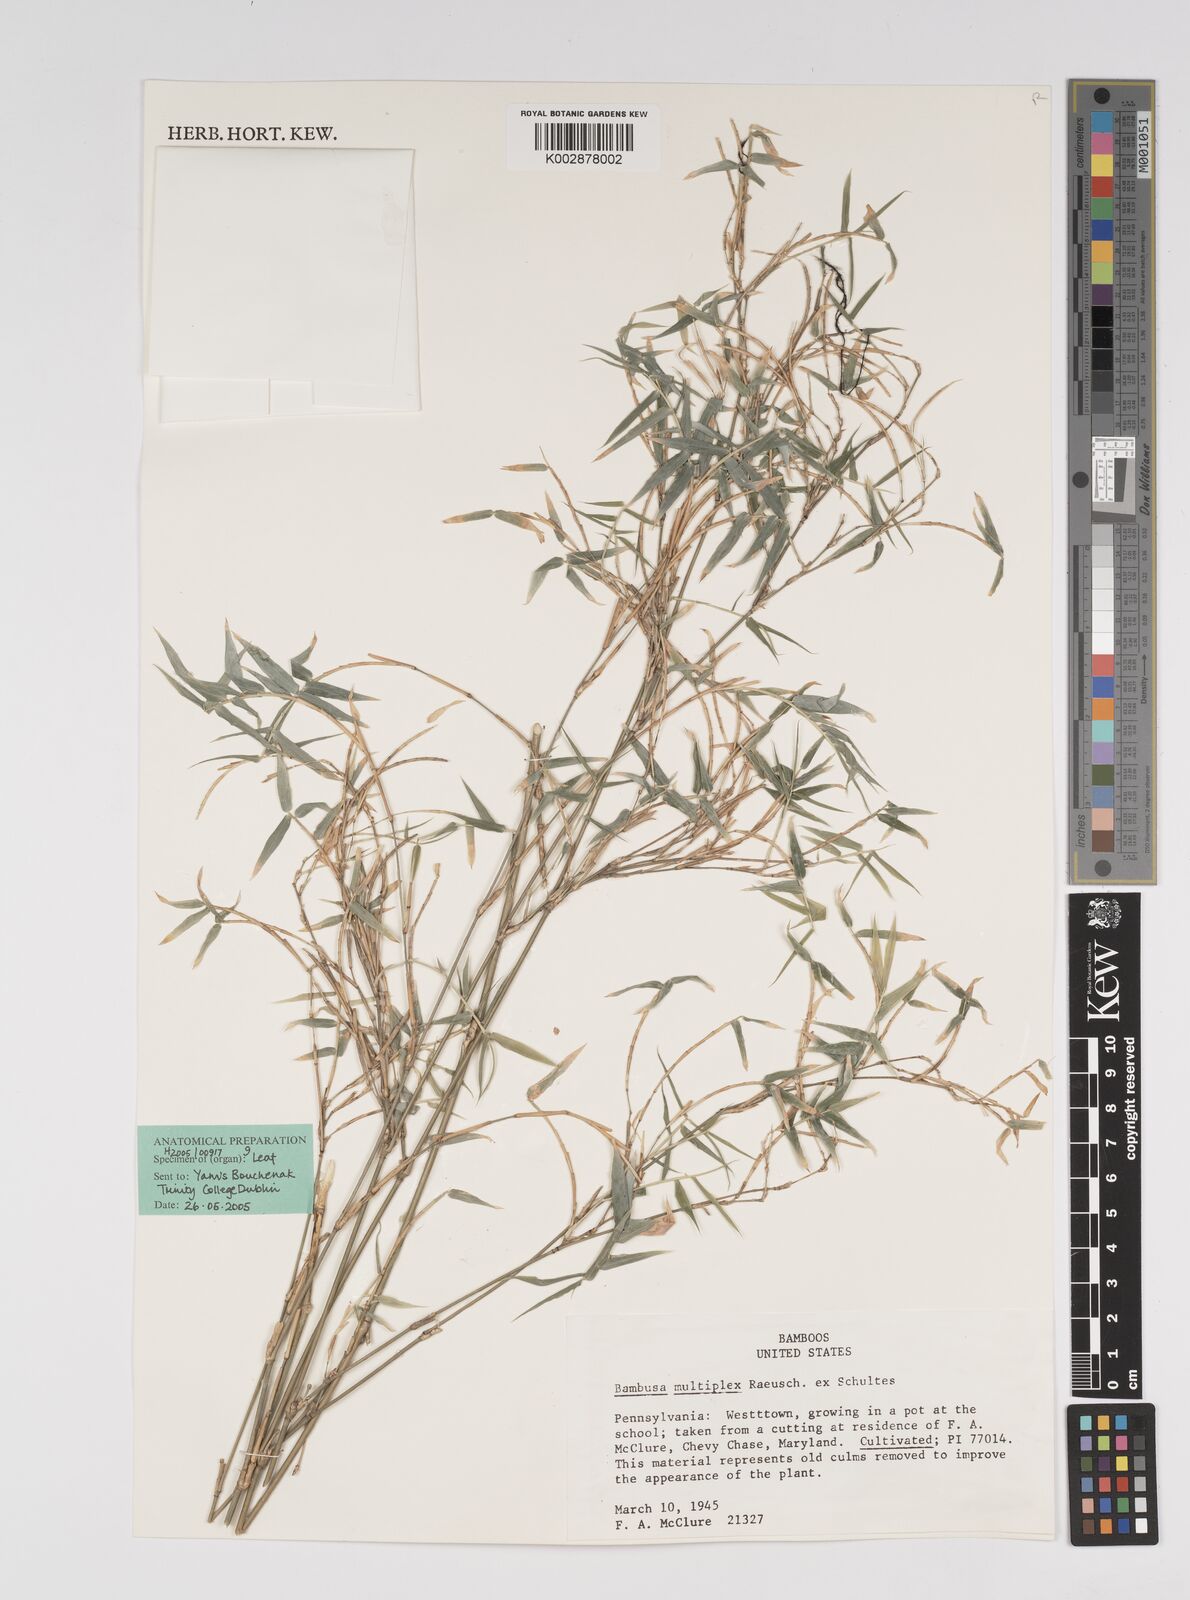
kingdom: Plantae
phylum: Tracheophyta
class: Liliopsida
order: Poales
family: Poaceae
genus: Bambusa
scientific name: Bambusa multiplex
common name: Hedge bamboo
